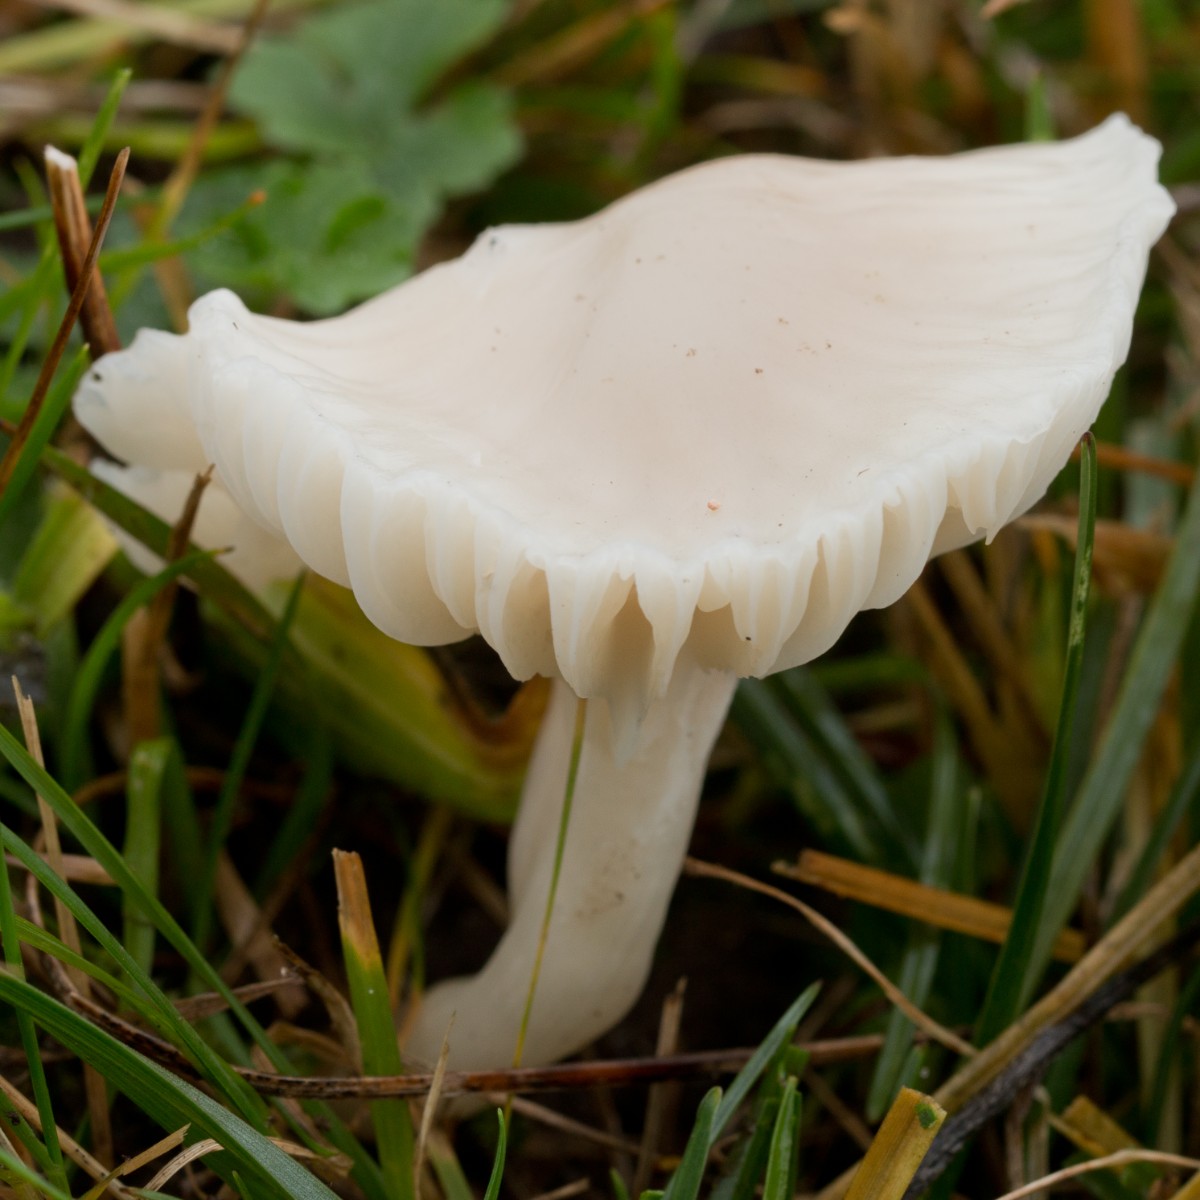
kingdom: Fungi
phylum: Basidiomycota
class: Agaricomycetes
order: Agaricales
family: Hygrophoraceae
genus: Cuphophyllus
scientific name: Cuphophyllus virgineus
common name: snehvid vokshat
